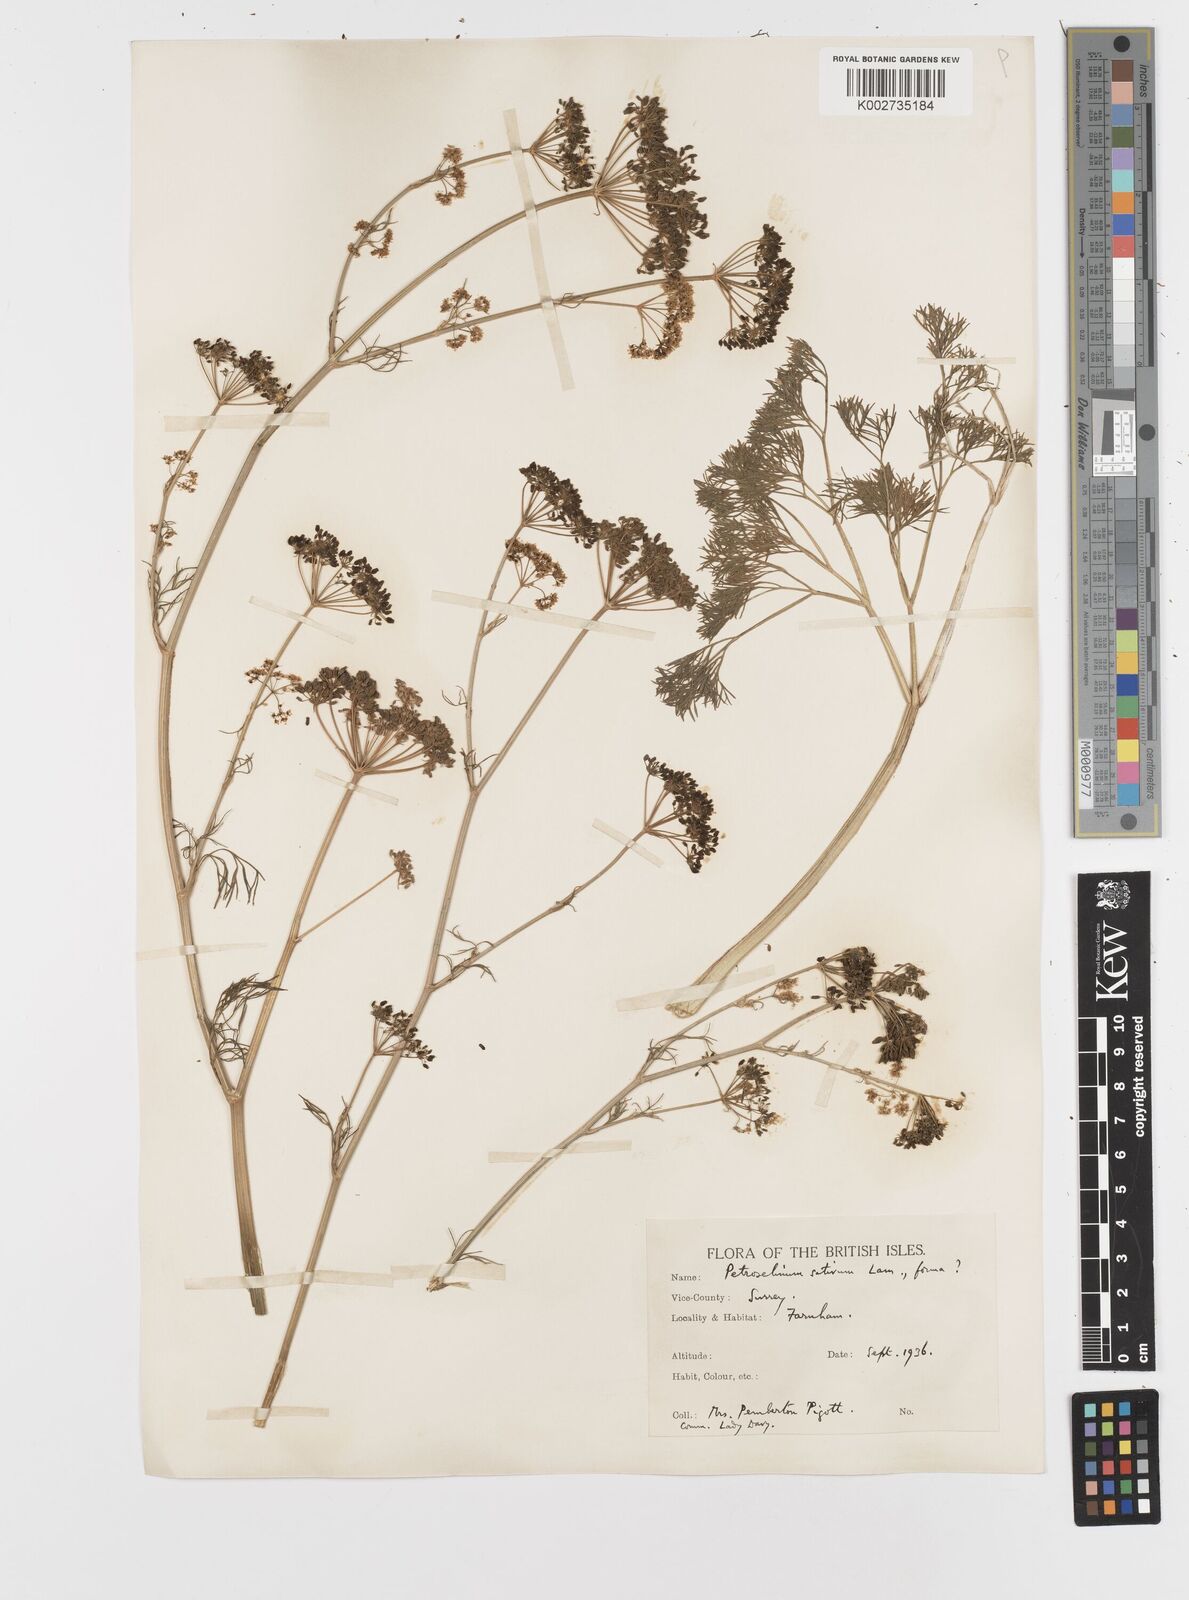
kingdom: Plantae
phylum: Tracheophyta
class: Magnoliopsida
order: Apiales
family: Apiaceae
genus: Petroselinum
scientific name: Petroselinum crispum
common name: Parsley
